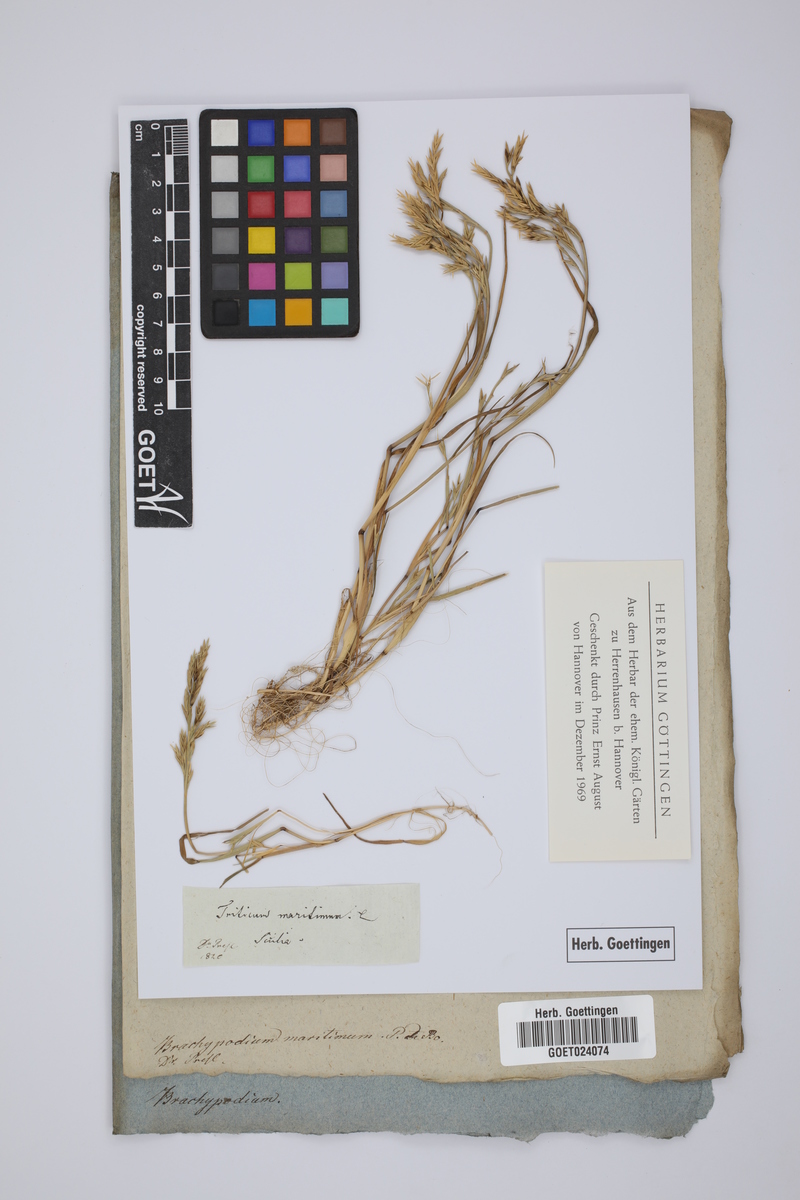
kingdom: Plantae
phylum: Tracheophyta
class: Liliopsida
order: Poales
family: Poaceae
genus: Cutandia
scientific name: Cutandia maritima
